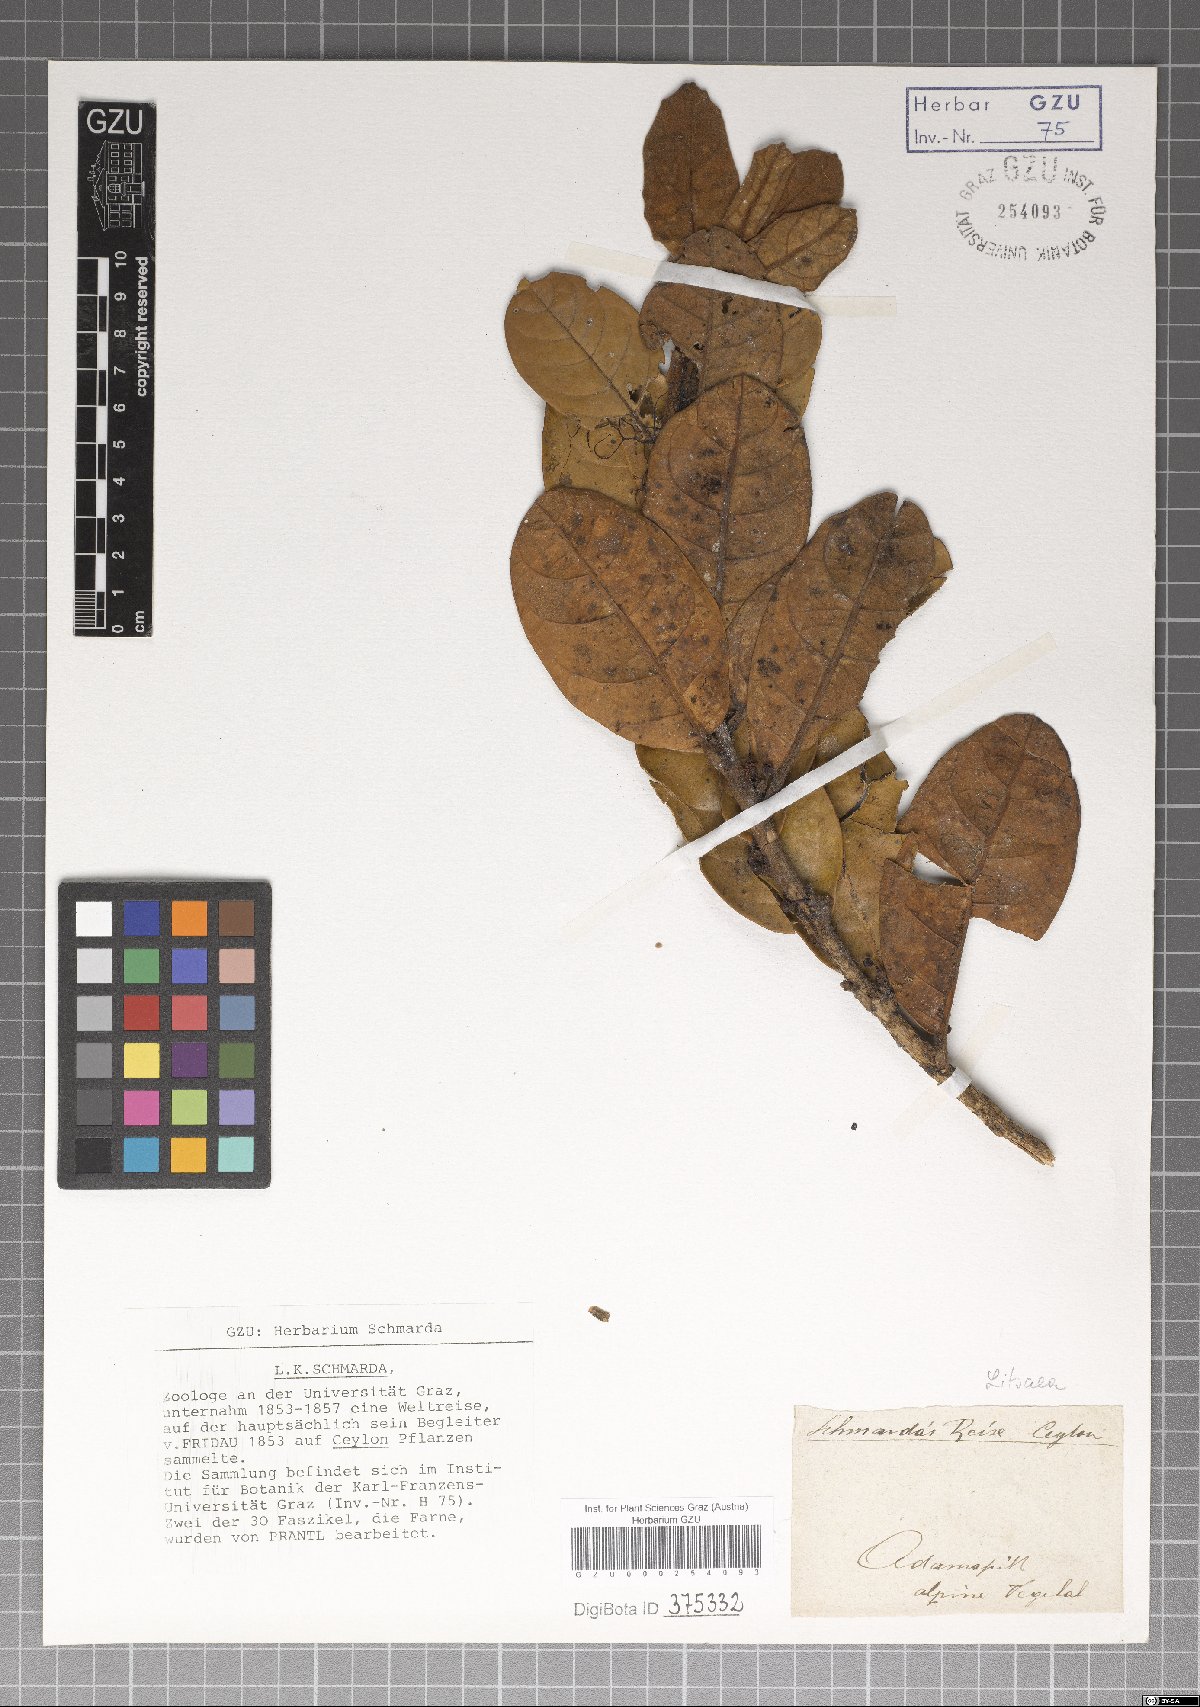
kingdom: Plantae
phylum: Tracheophyta
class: Magnoliopsida
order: Laurales
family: Lauraceae
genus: Litsea
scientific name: Litsea
